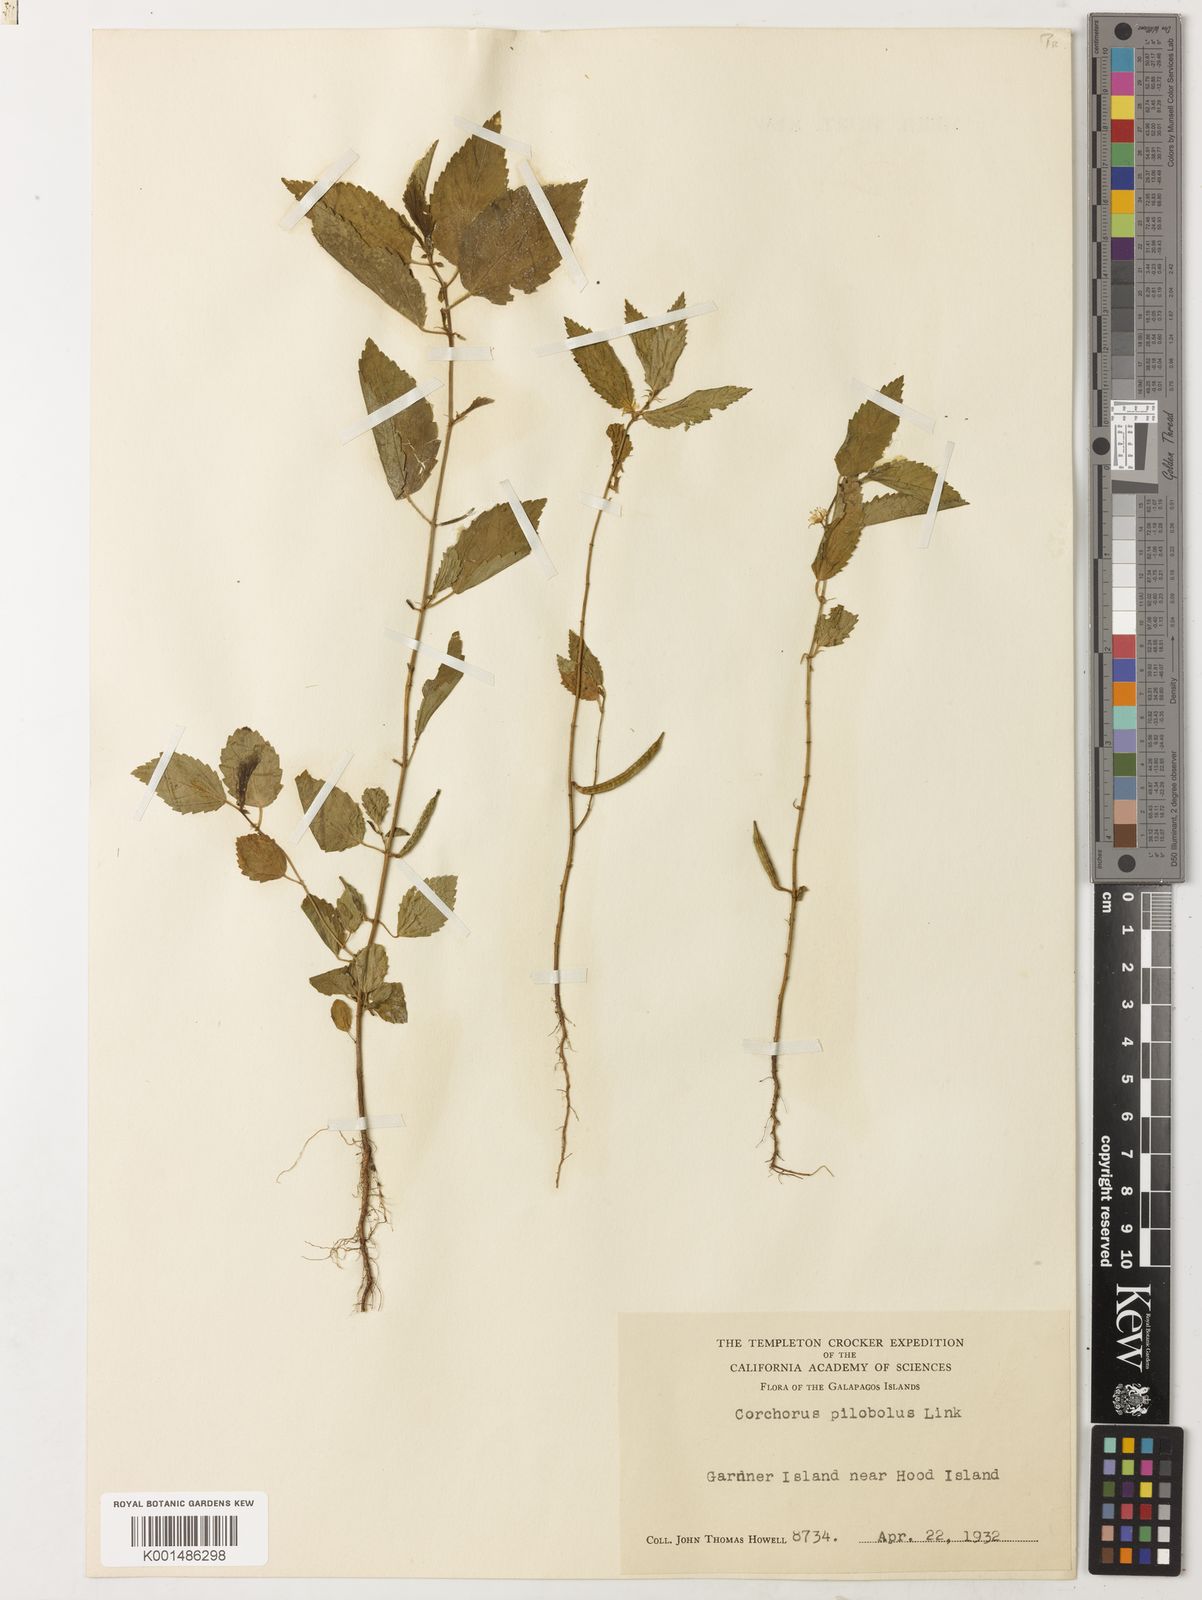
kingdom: Plantae
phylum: Tracheophyta
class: Magnoliopsida
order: Malvales
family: Malvaceae
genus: Corchorus
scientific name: Corchorus orinocensis
